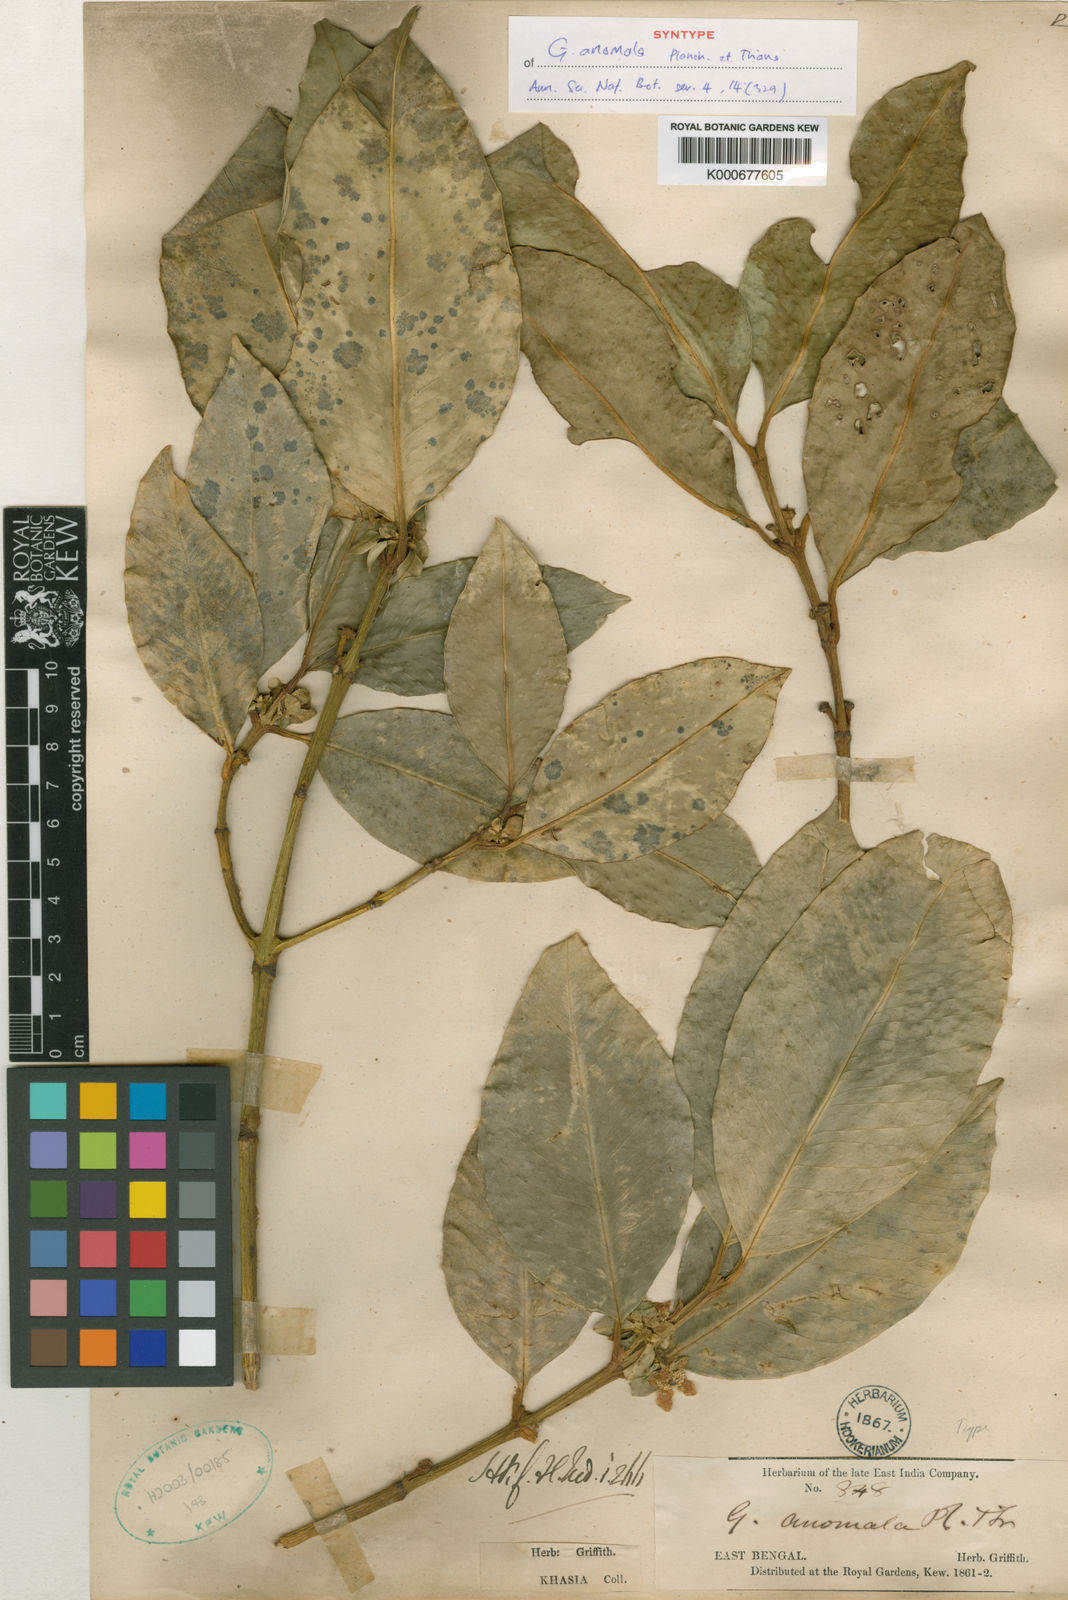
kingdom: Plantae
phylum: Tracheophyta
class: Magnoliopsida
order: Malpighiales
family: Clusiaceae
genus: Garcinia
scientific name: Garcinia anomala
